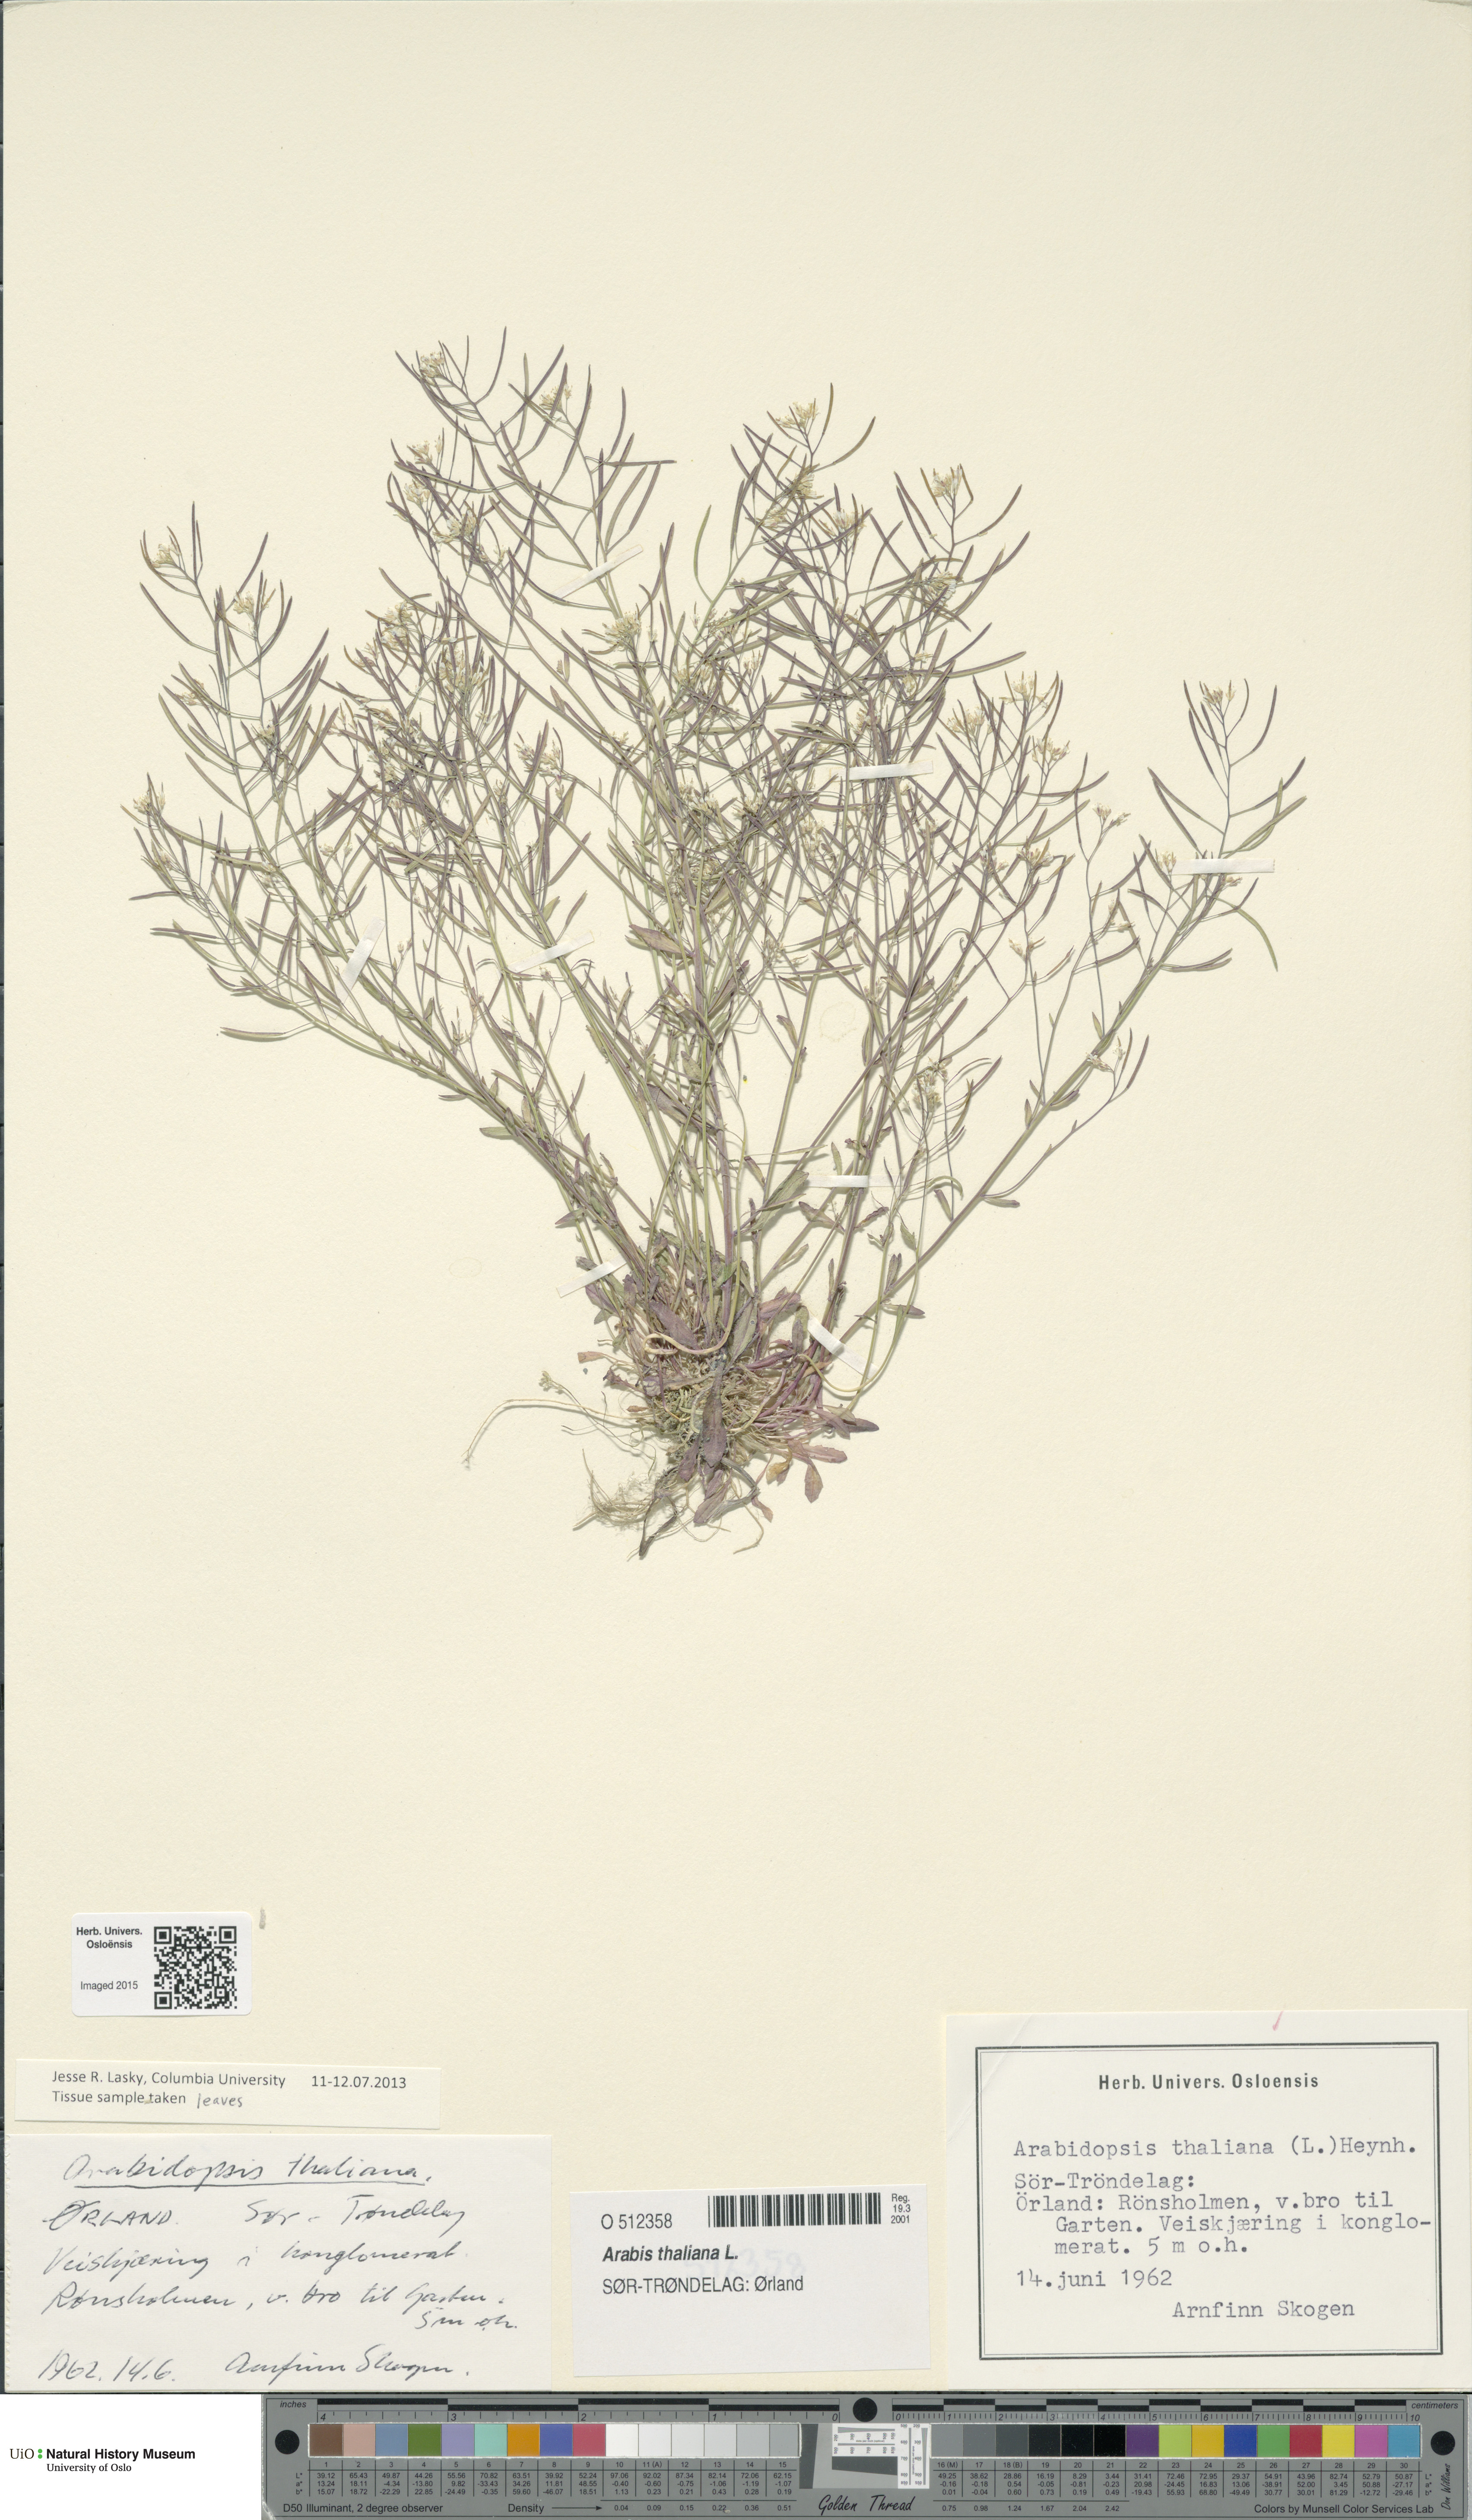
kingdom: Plantae
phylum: Tracheophyta
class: Magnoliopsida
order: Brassicales
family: Brassicaceae
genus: Arabidopsis
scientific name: Arabidopsis thaliana
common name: Thale cress
